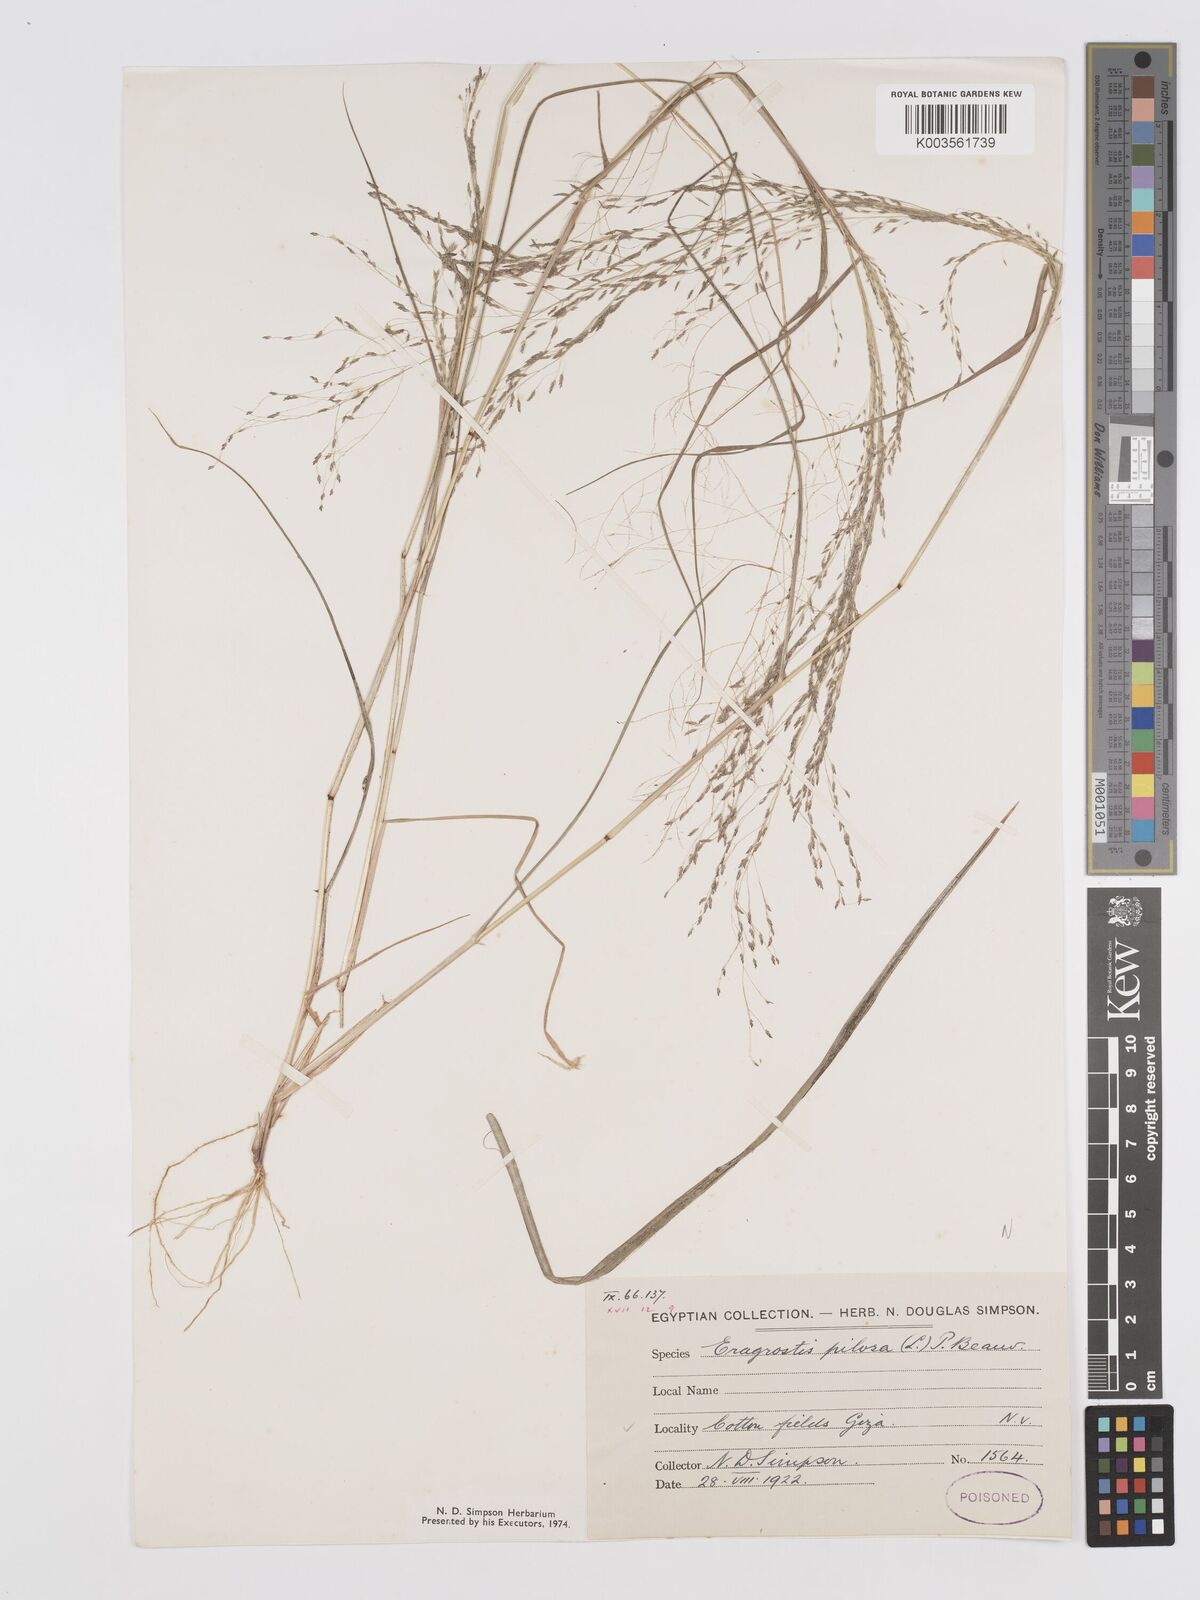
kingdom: Plantae
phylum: Tracheophyta
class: Liliopsida
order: Poales
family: Poaceae
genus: Eragrostis
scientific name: Eragrostis pilosa
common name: Indian lovegrass
